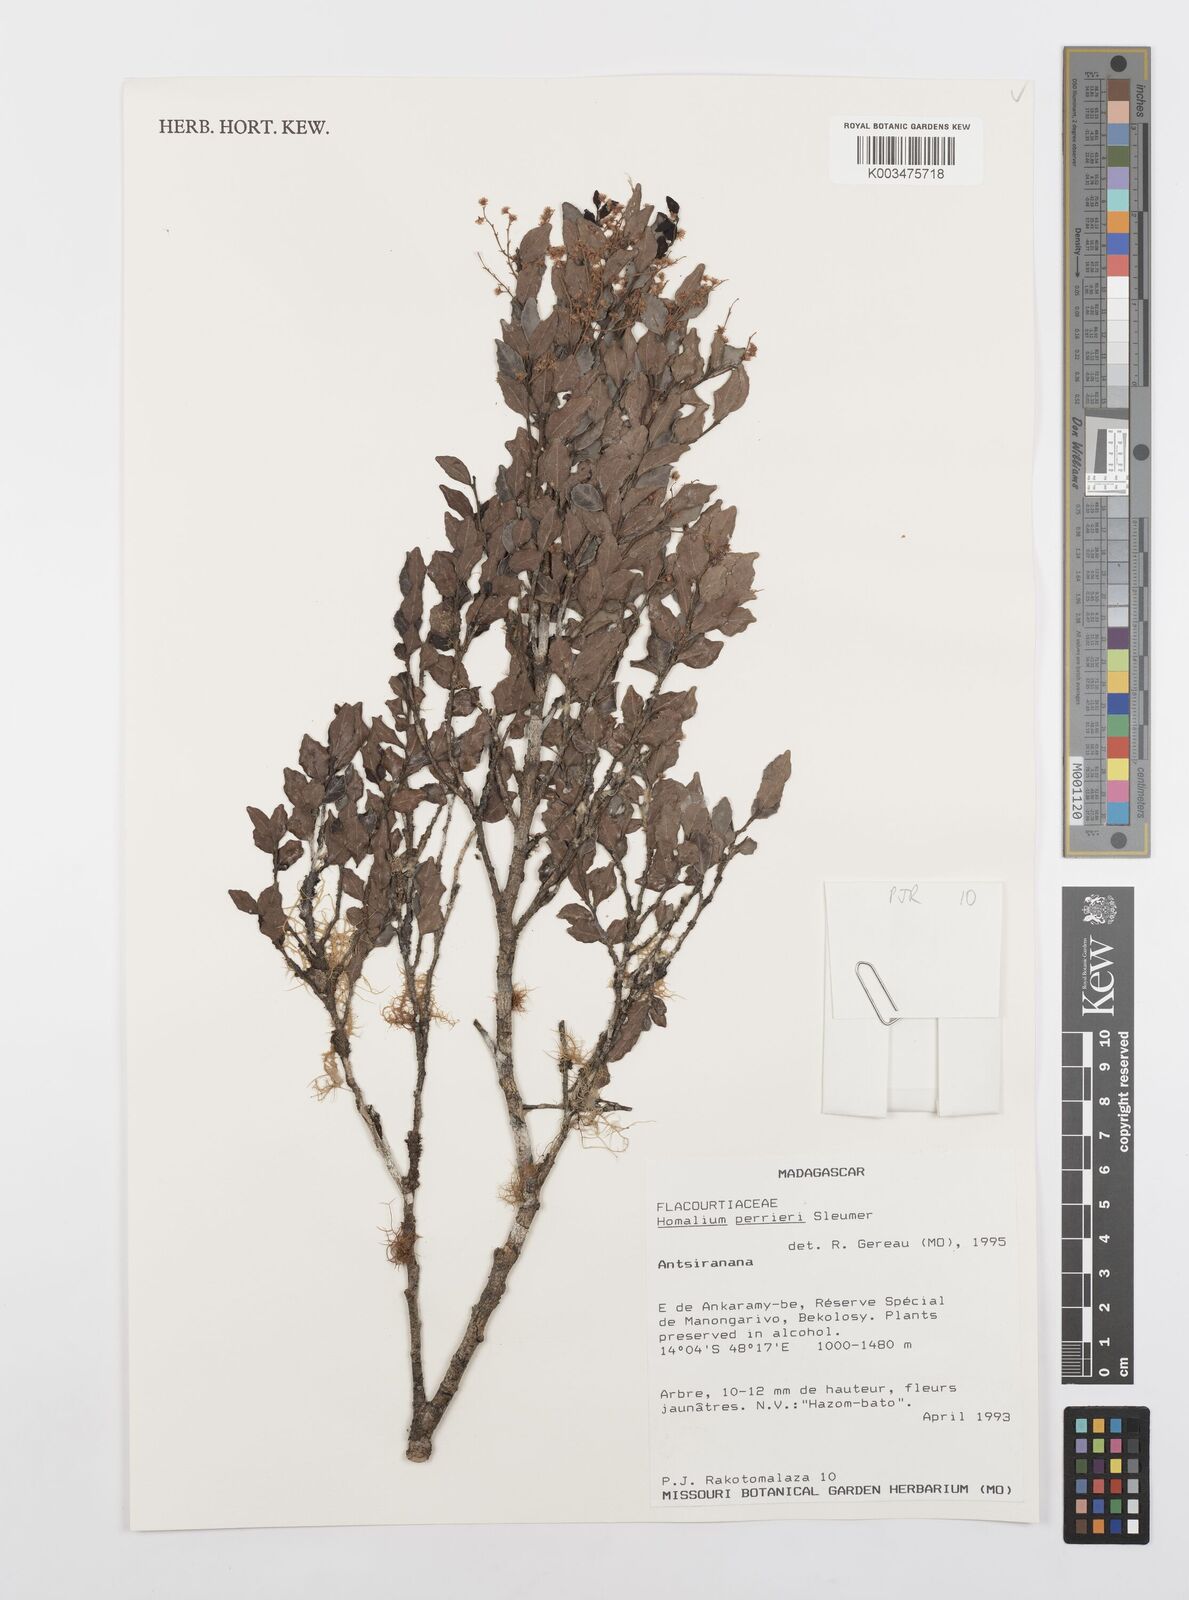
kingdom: Plantae
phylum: Tracheophyta
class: Magnoliopsida
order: Malpighiales
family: Salicaceae
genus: Homalium
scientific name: Homalium perrieri
